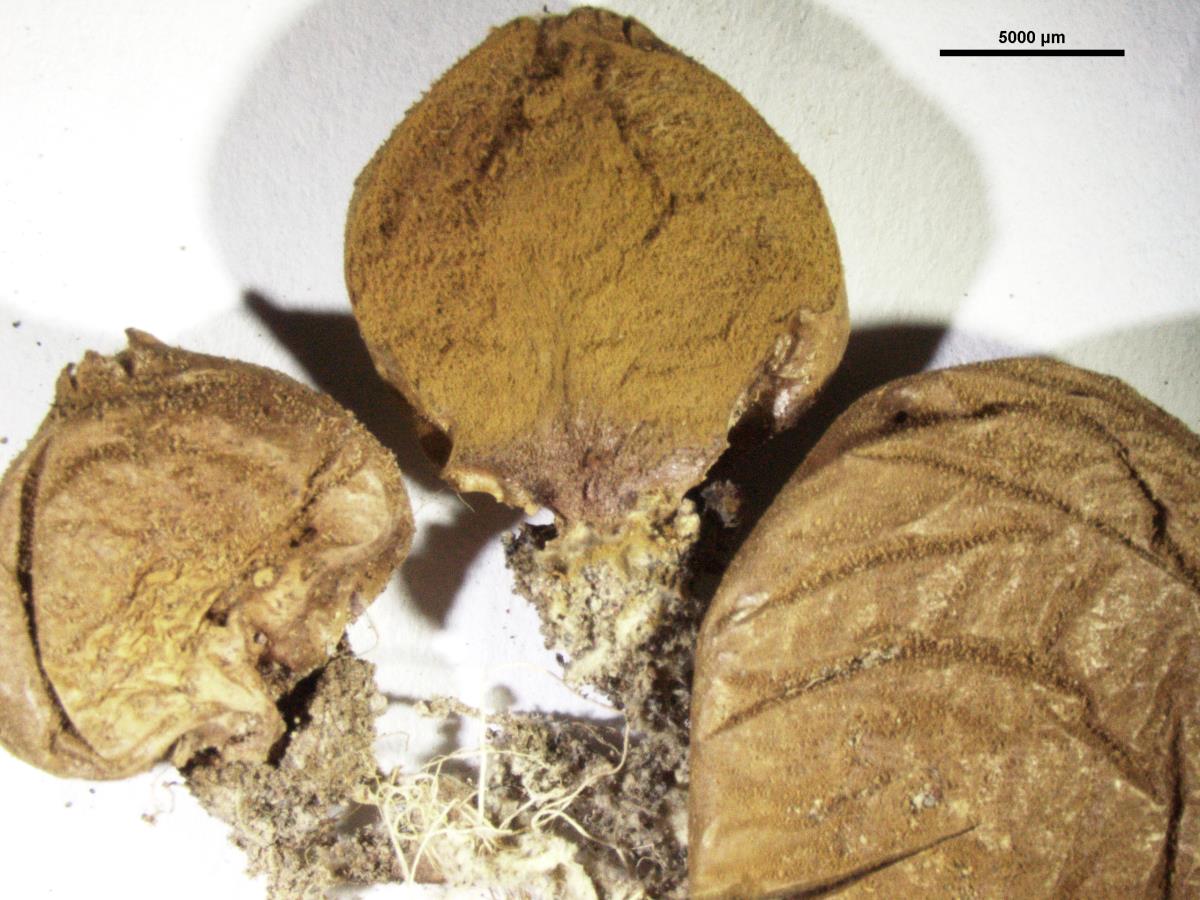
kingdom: Fungi
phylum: Basidiomycota
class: Agaricomycetes
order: Agaricales
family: Lycoperdaceae
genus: Lycoperdon
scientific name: Lycoperdon
